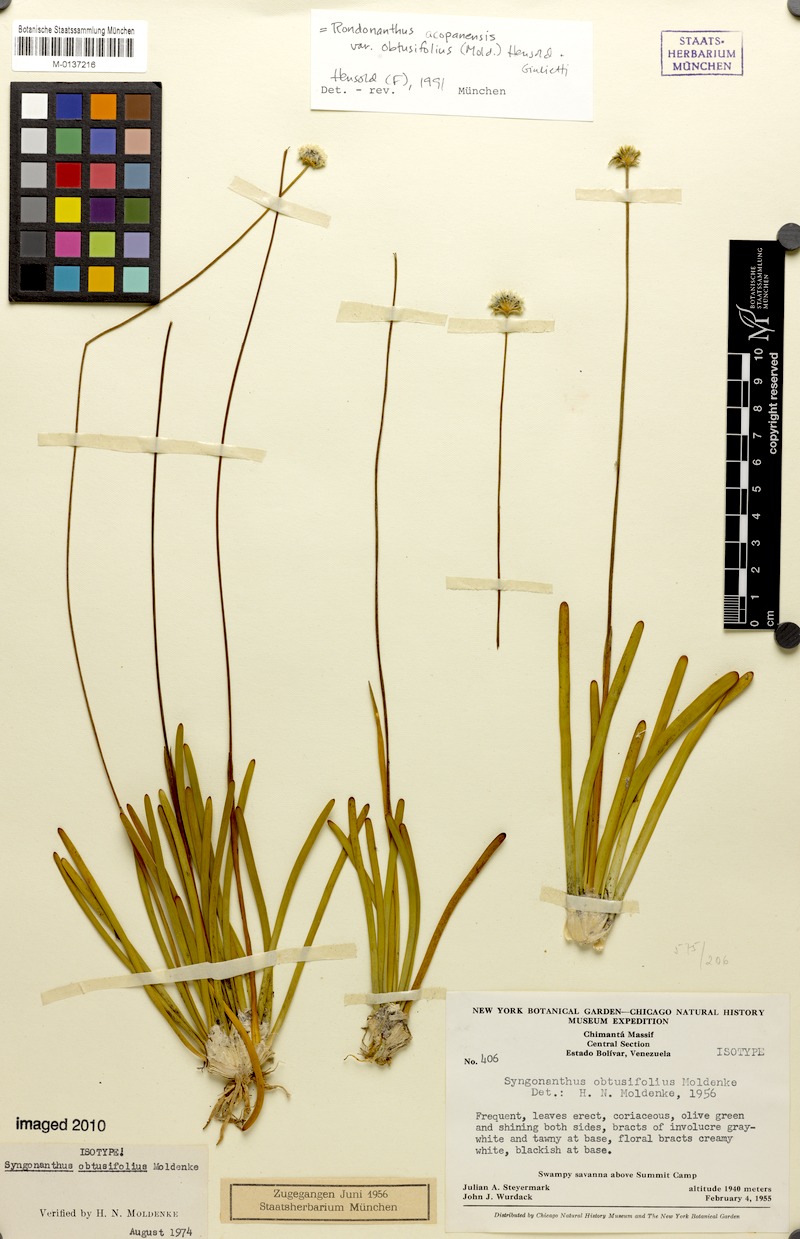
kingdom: Plantae
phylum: Tracheophyta
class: Liliopsida
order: Poales
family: Eriocaulaceae
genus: Rondonanthus
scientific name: Rondonanthus acopanensis
